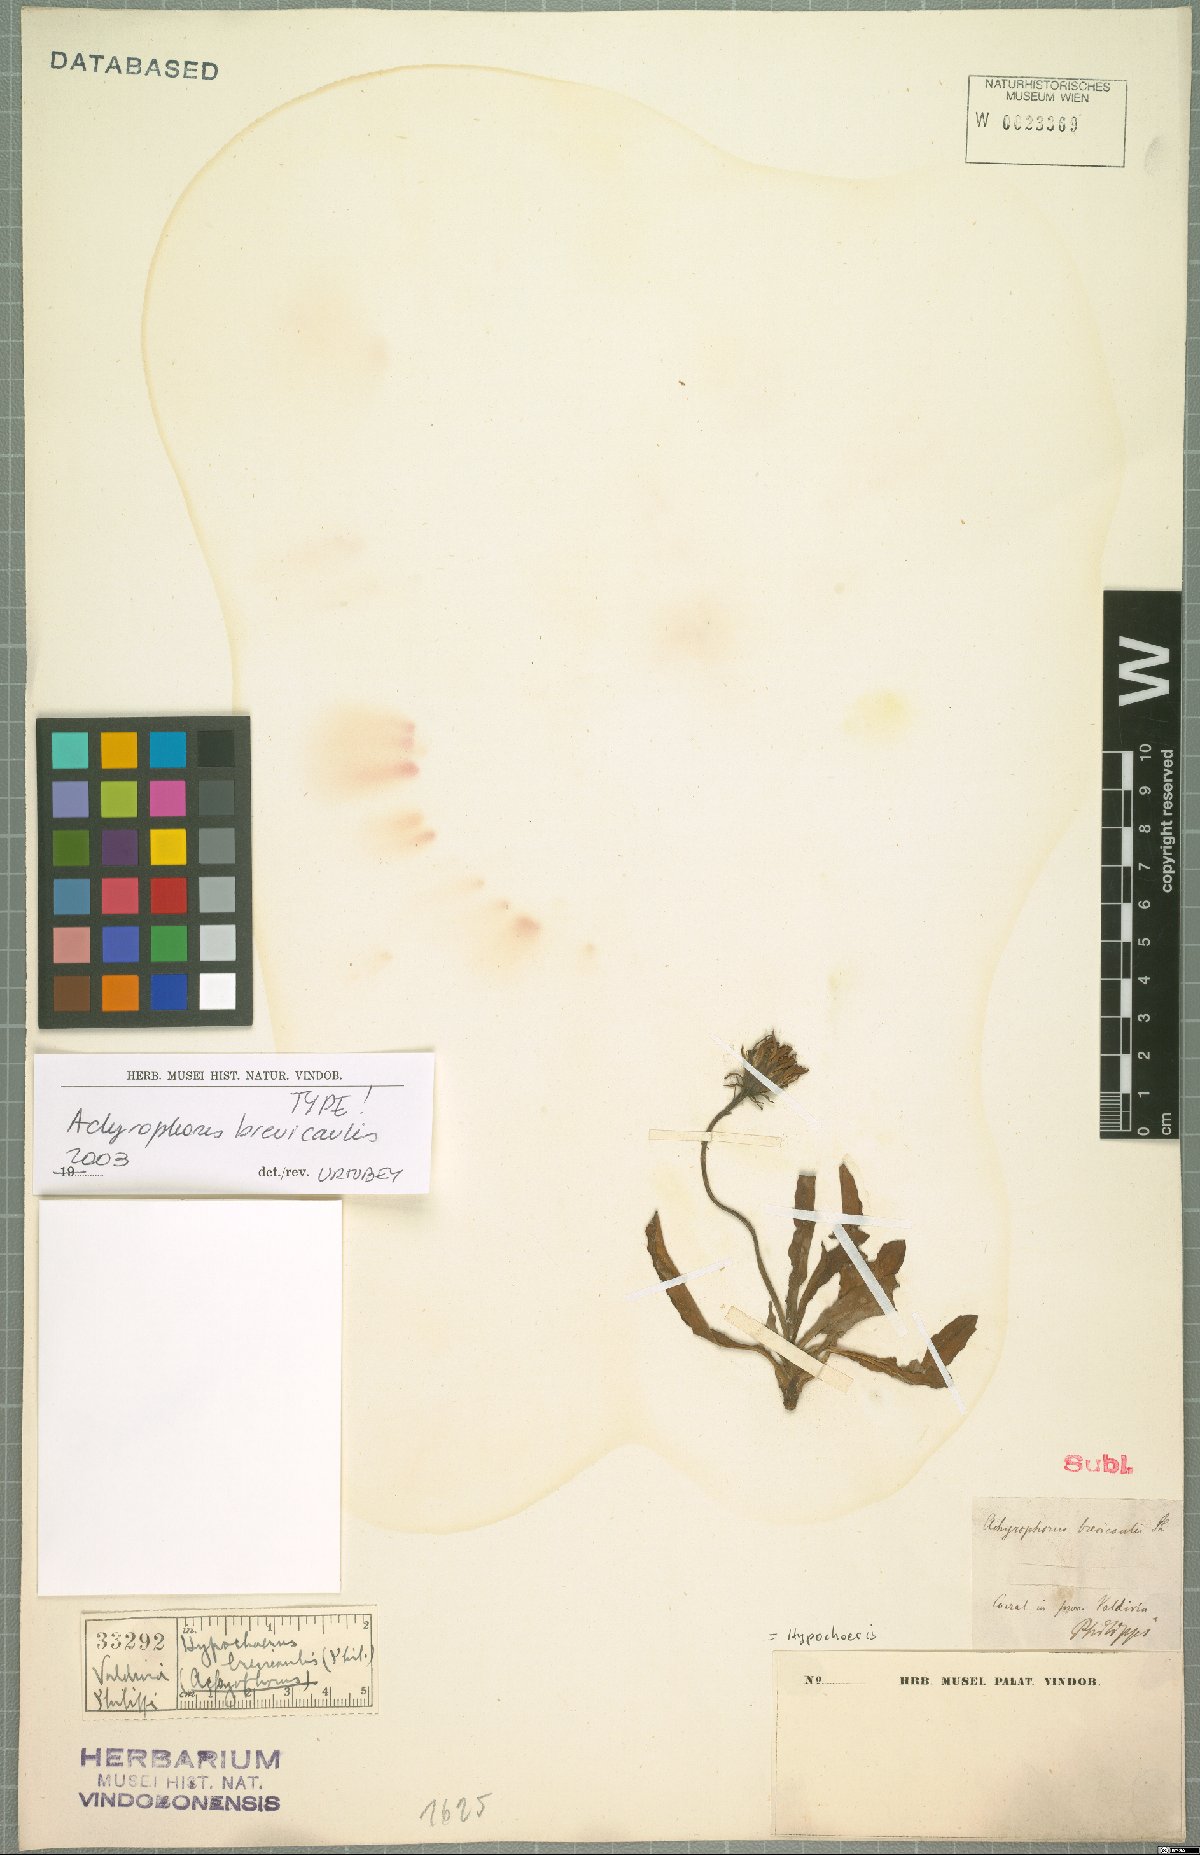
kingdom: Plantae
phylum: Tracheophyta
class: Magnoliopsida
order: Asterales
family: Asteraceae
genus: Hypochaeris
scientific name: Hypochaeris spathulata
